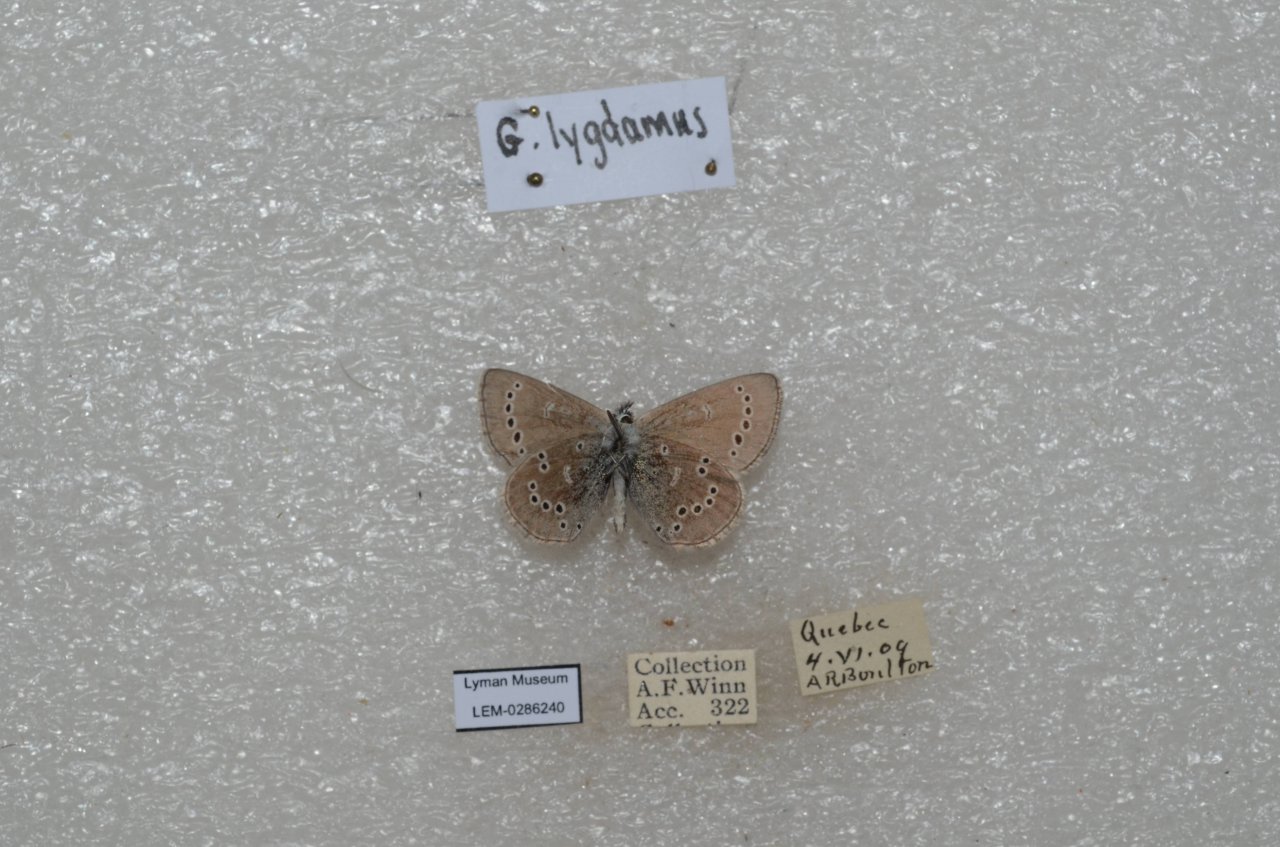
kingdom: Animalia
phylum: Arthropoda
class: Insecta
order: Lepidoptera
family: Lycaenidae
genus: Glaucopsyche
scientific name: Glaucopsyche lygdamus
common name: Silvery Blue
